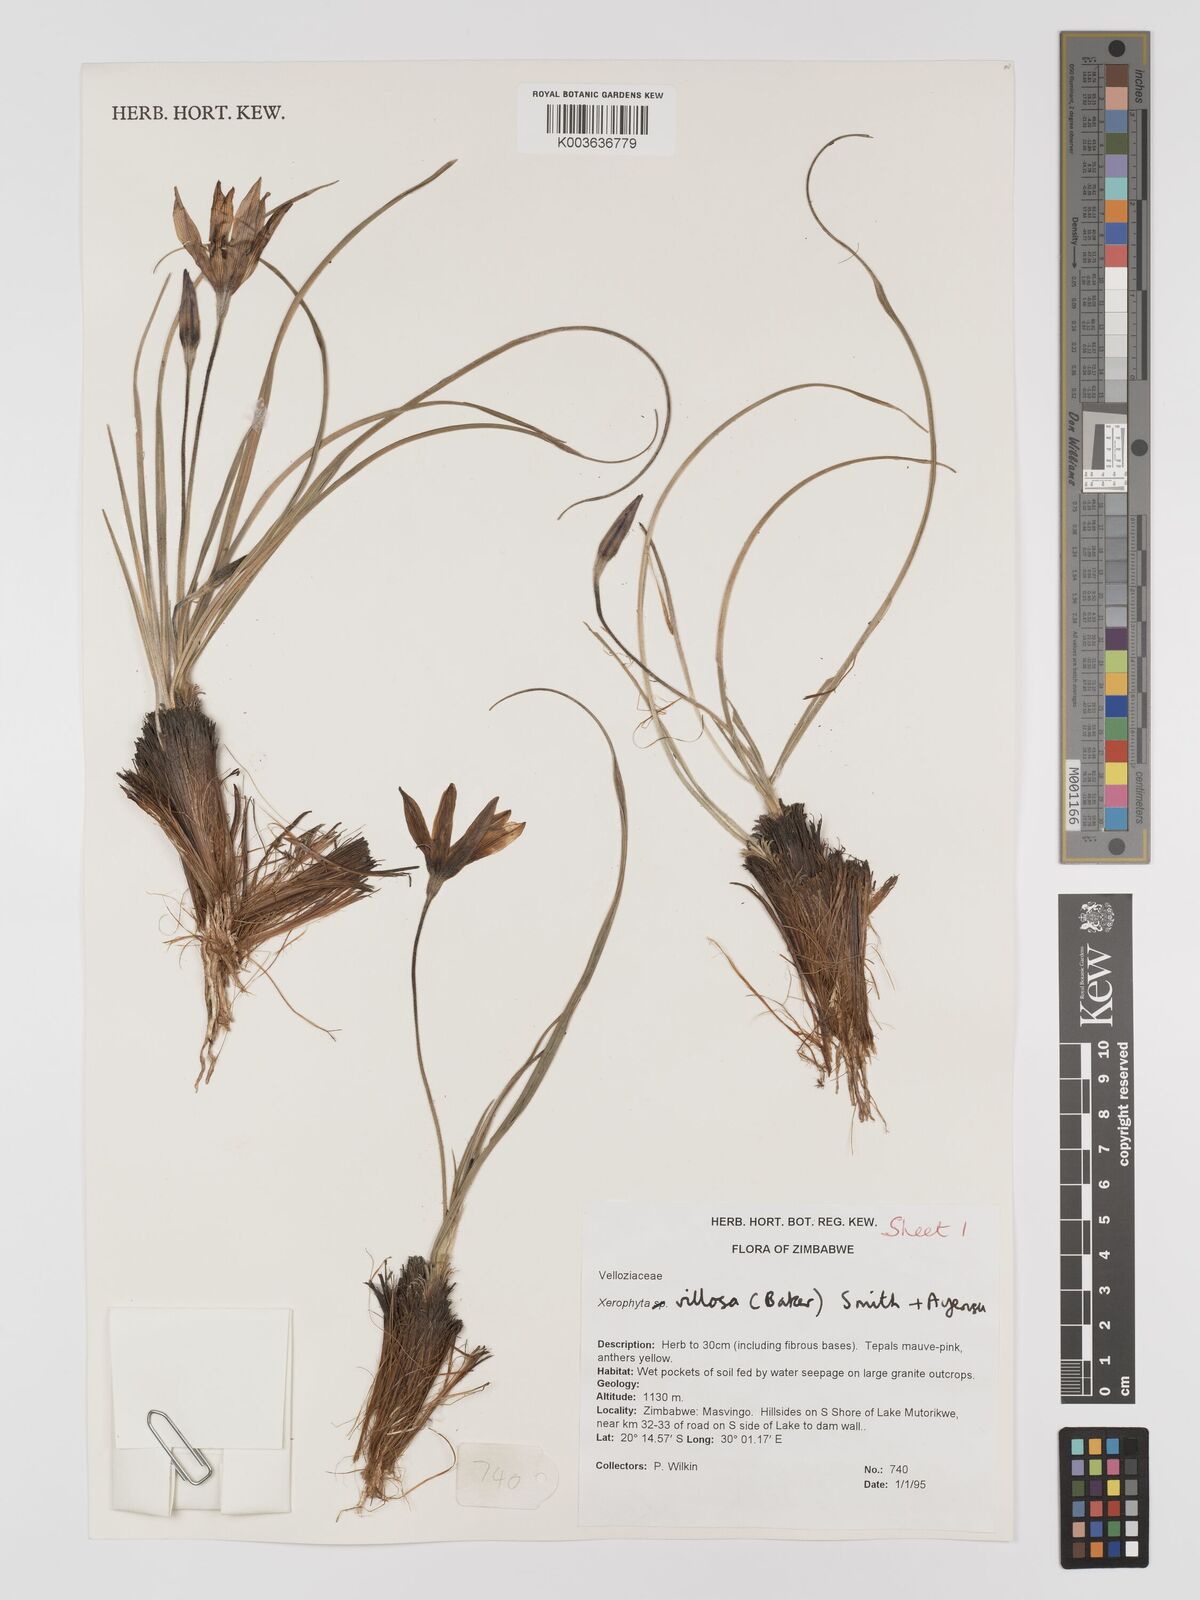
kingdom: Plantae
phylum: Tracheophyta
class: Liliopsida
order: Pandanales
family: Velloziaceae
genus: Xerophyta
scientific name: Xerophyta villosa
